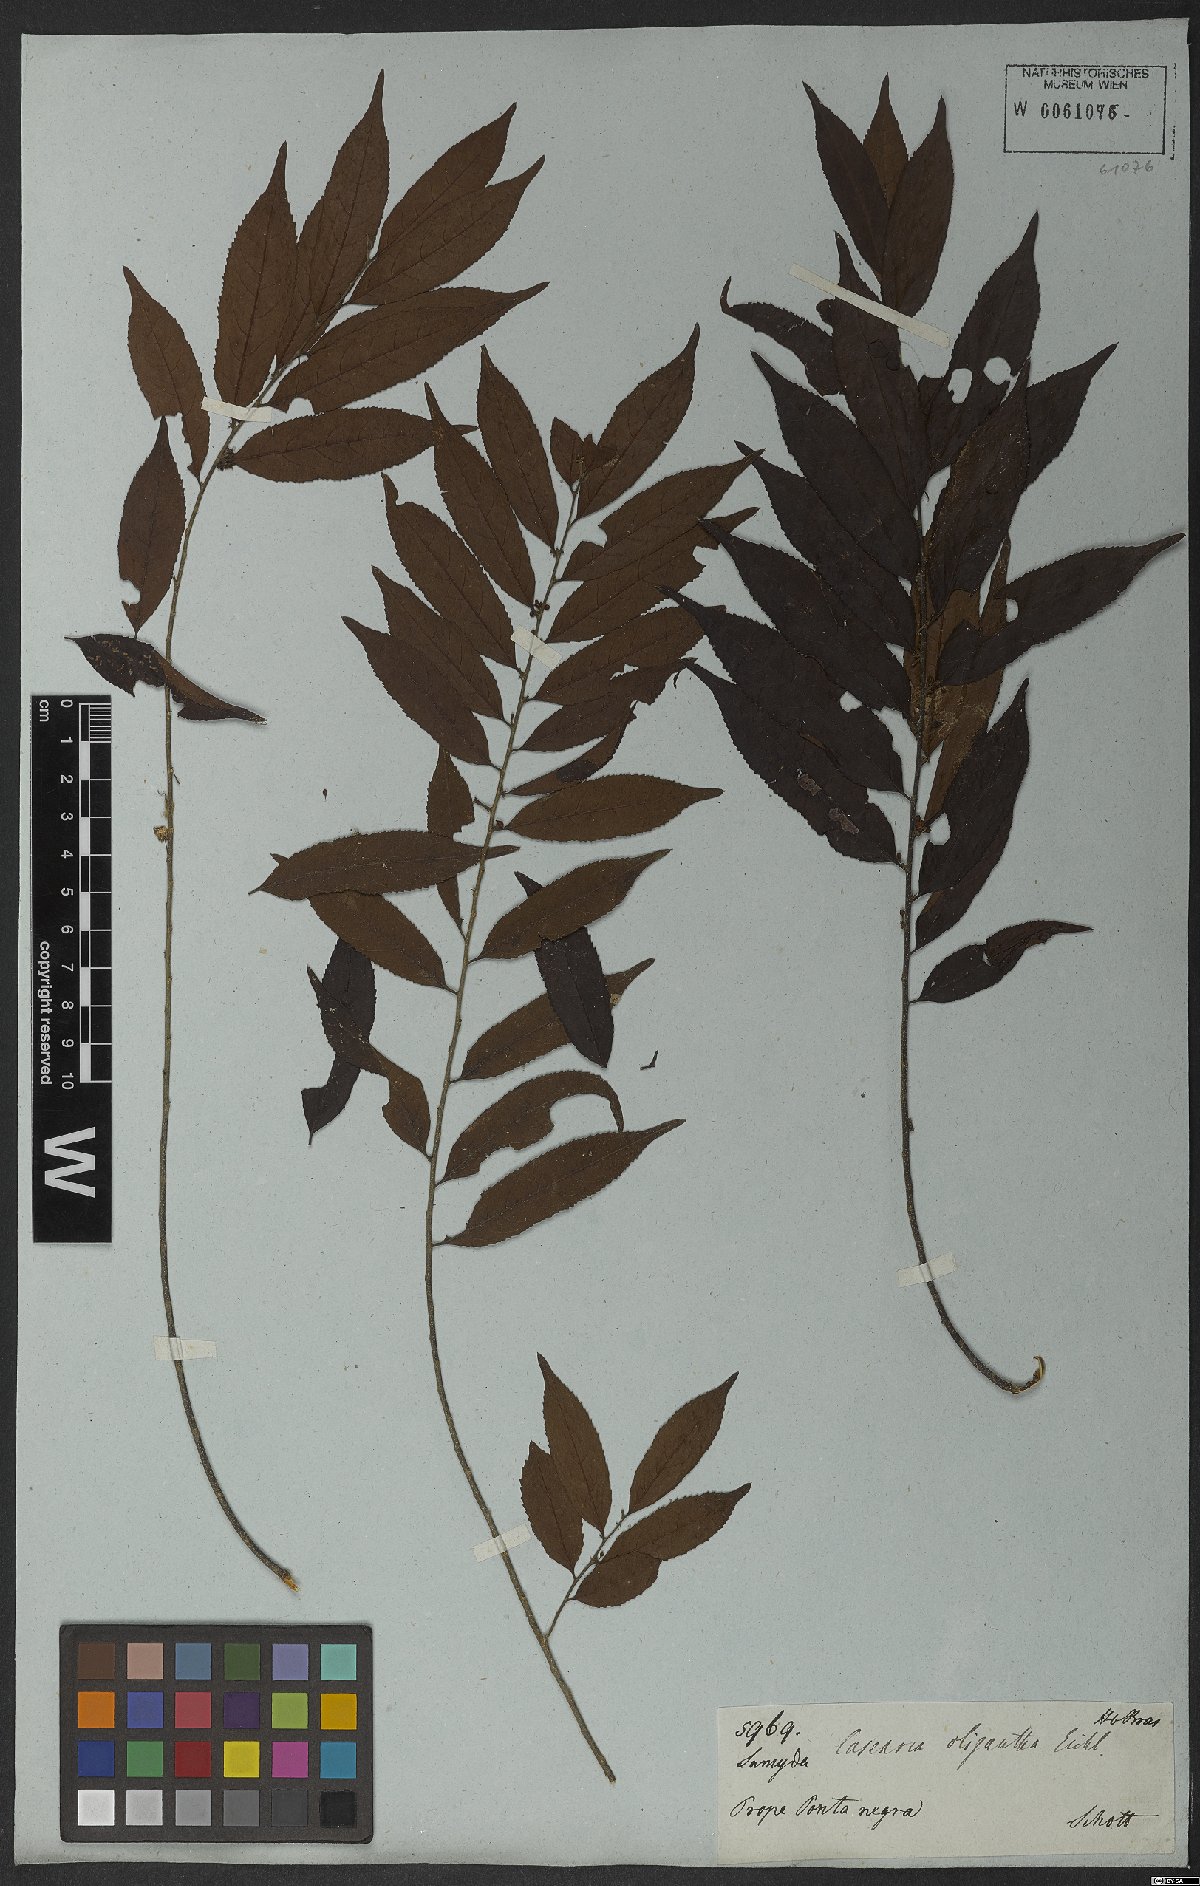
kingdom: Plantae
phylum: Tracheophyta
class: Magnoliopsida
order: Malpighiales
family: Salicaceae
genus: Casearia
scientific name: Casearia arborea
